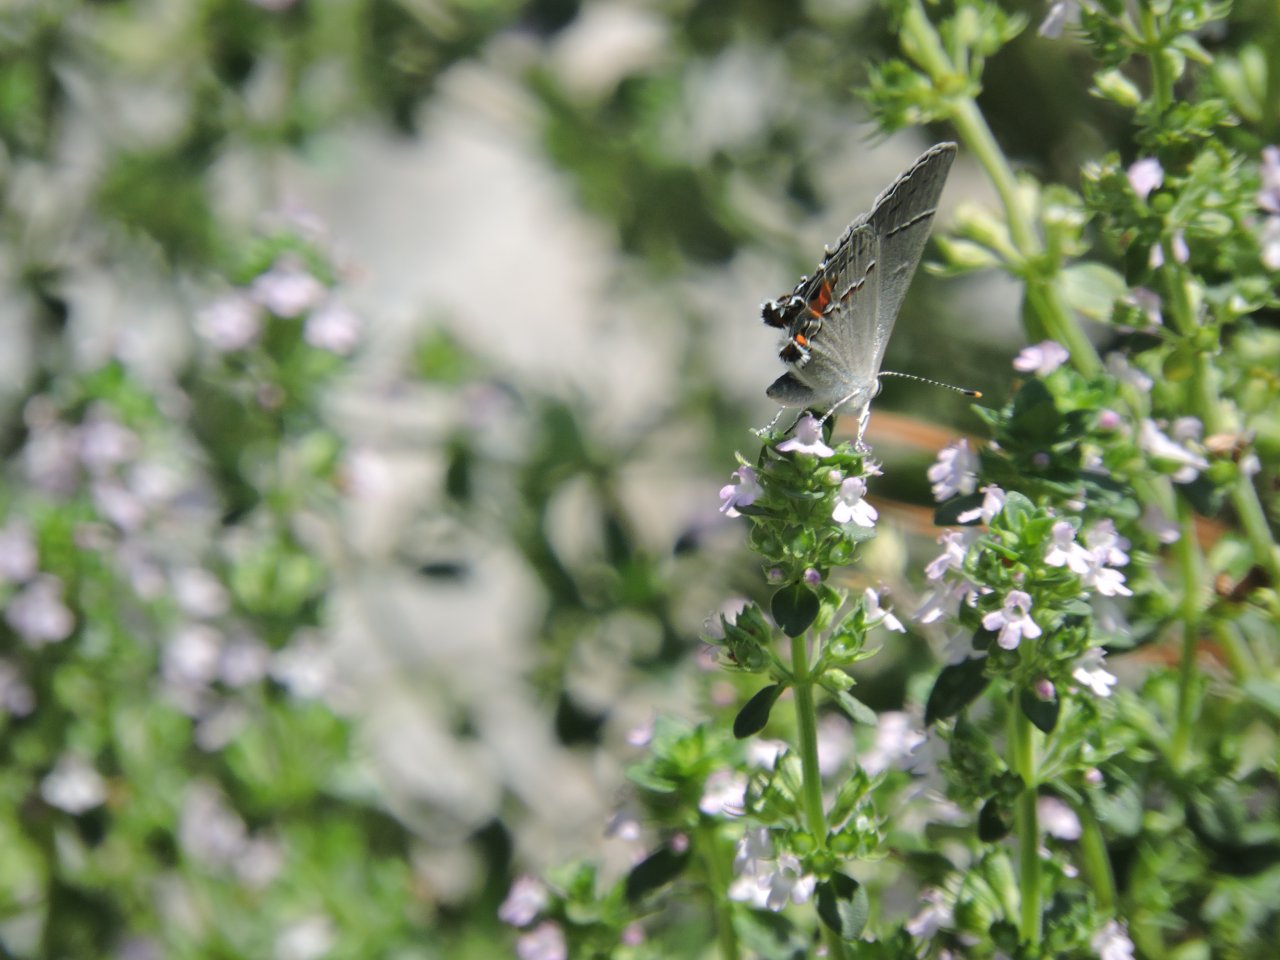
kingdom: Animalia
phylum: Arthropoda
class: Insecta
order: Lepidoptera
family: Lycaenidae
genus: Strymon
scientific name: Strymon melinus
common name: Gray Hairstreak
